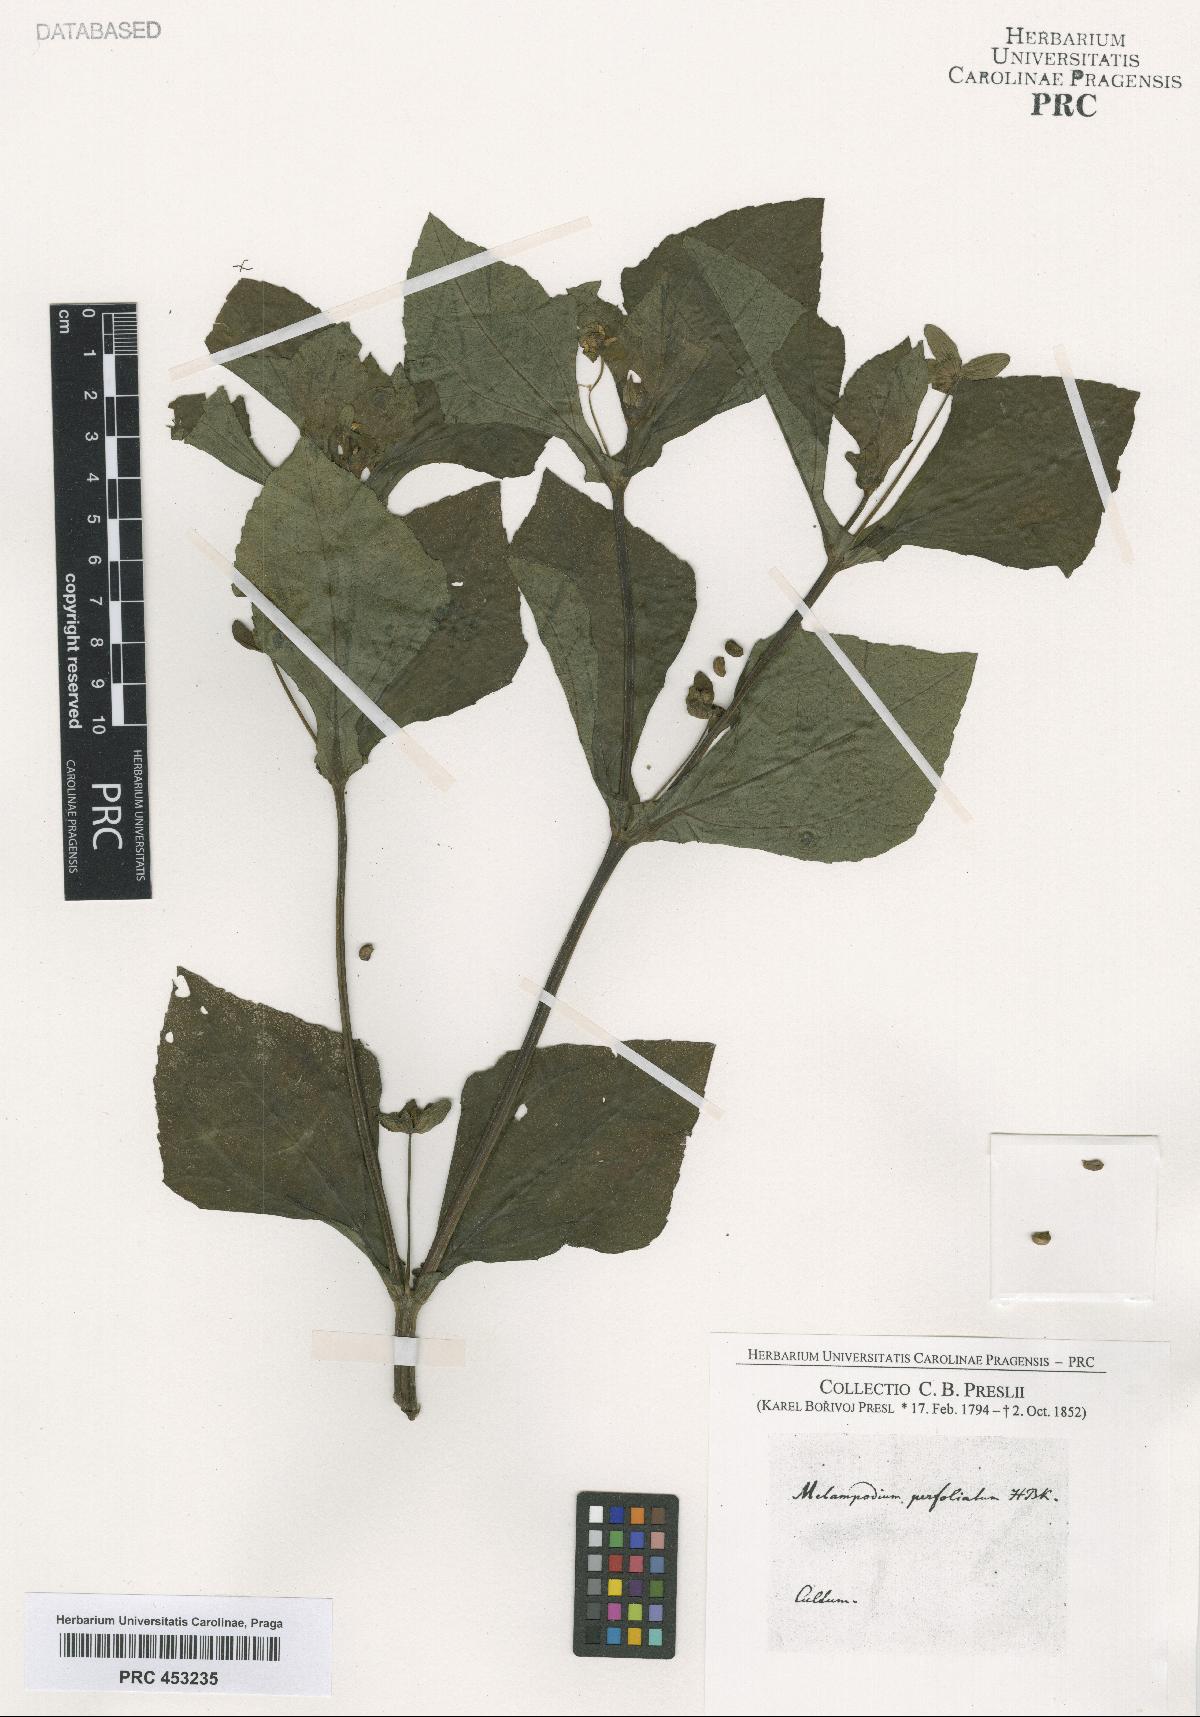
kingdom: Plantae
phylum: Tracheophyta
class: Magnoliopsida
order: Asterales
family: Asteraceae
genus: Melampodium
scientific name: Melampodium perfoliatum
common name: Perfoliate blackfoot
